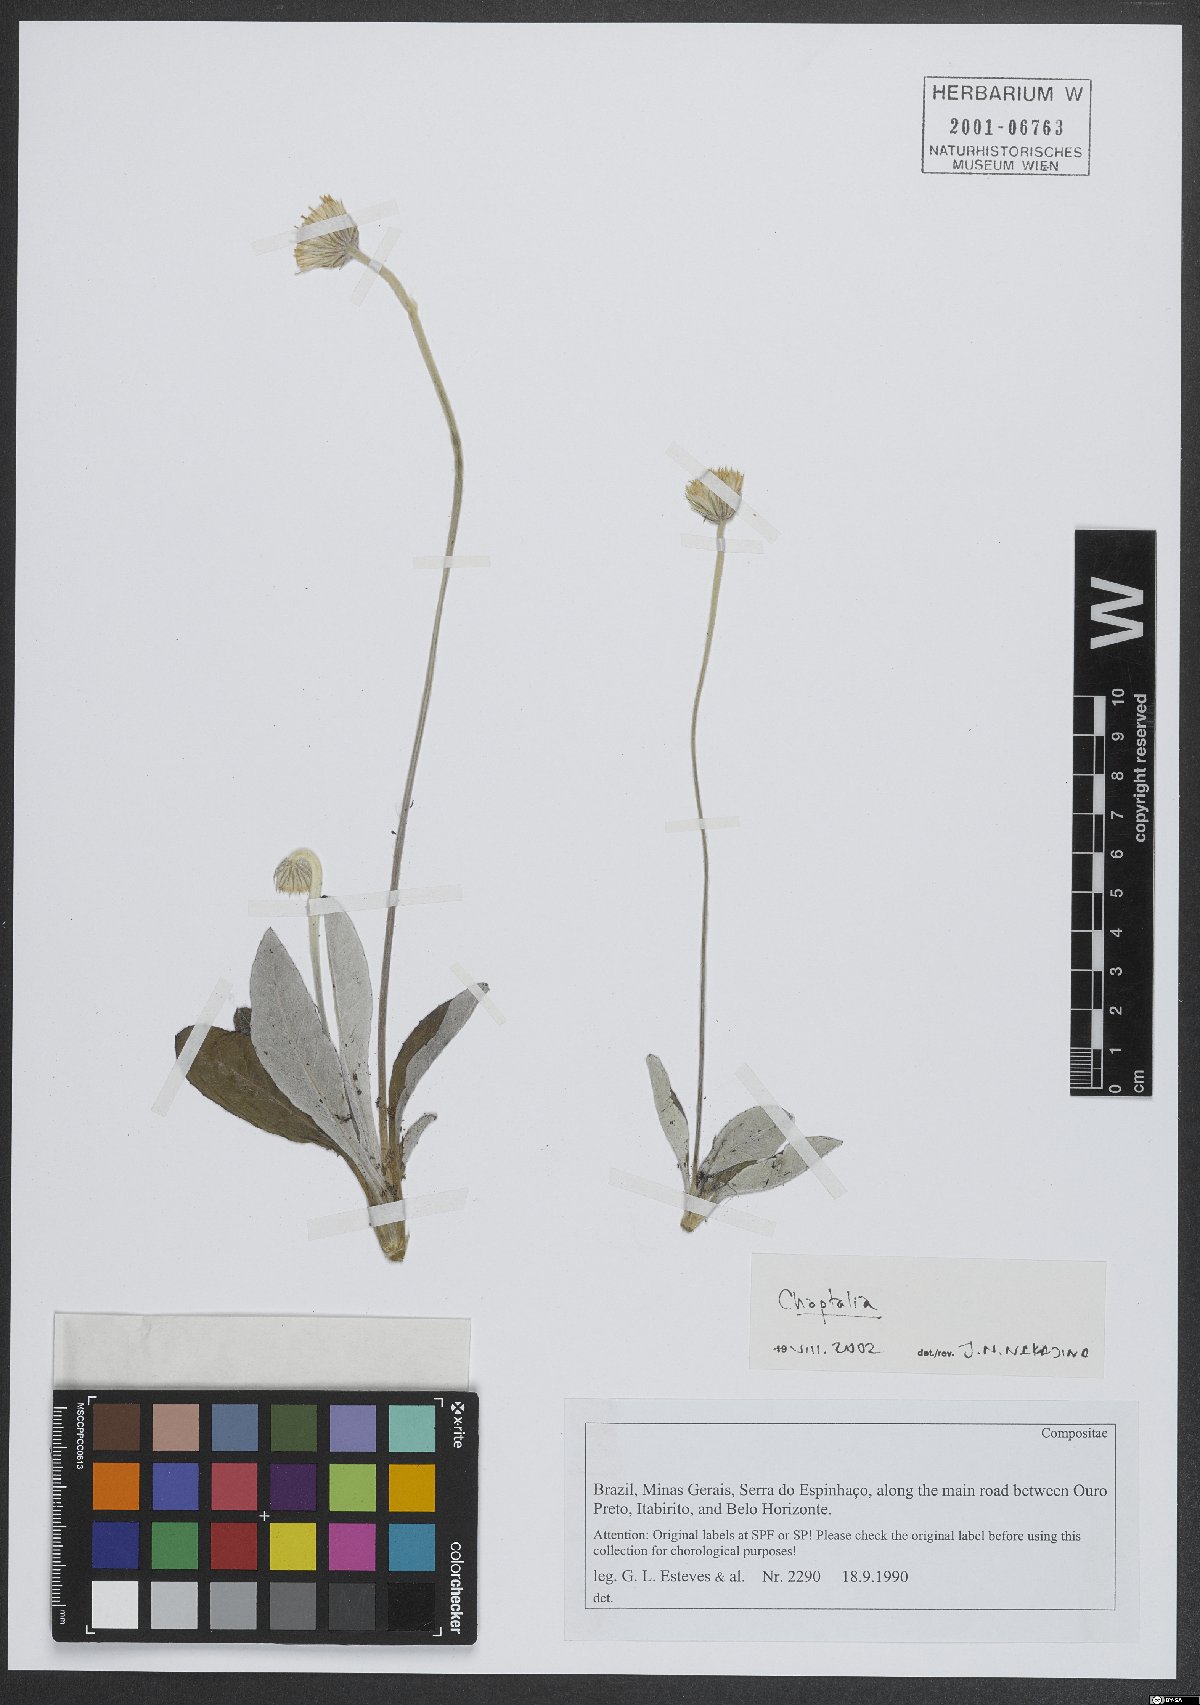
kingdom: Plantae
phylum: Tracheophyta
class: Magnoliopsida
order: Asterales
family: Asteraceae
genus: Chaptalia
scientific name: Chaptalia
